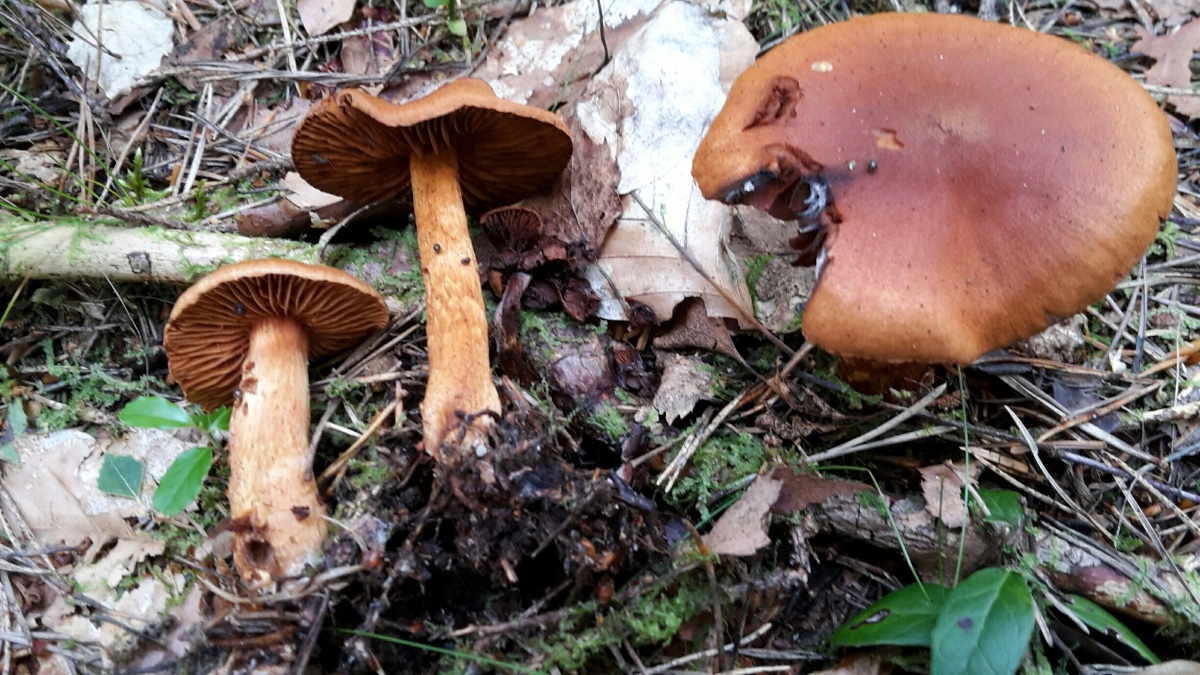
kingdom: Fungi
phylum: Basidiomycota
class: Agaricomycetes
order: Agaricales
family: Cortinariaceae
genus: Cortinarius
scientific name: Cortinarius rubellus
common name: puklet gift-slørhat
